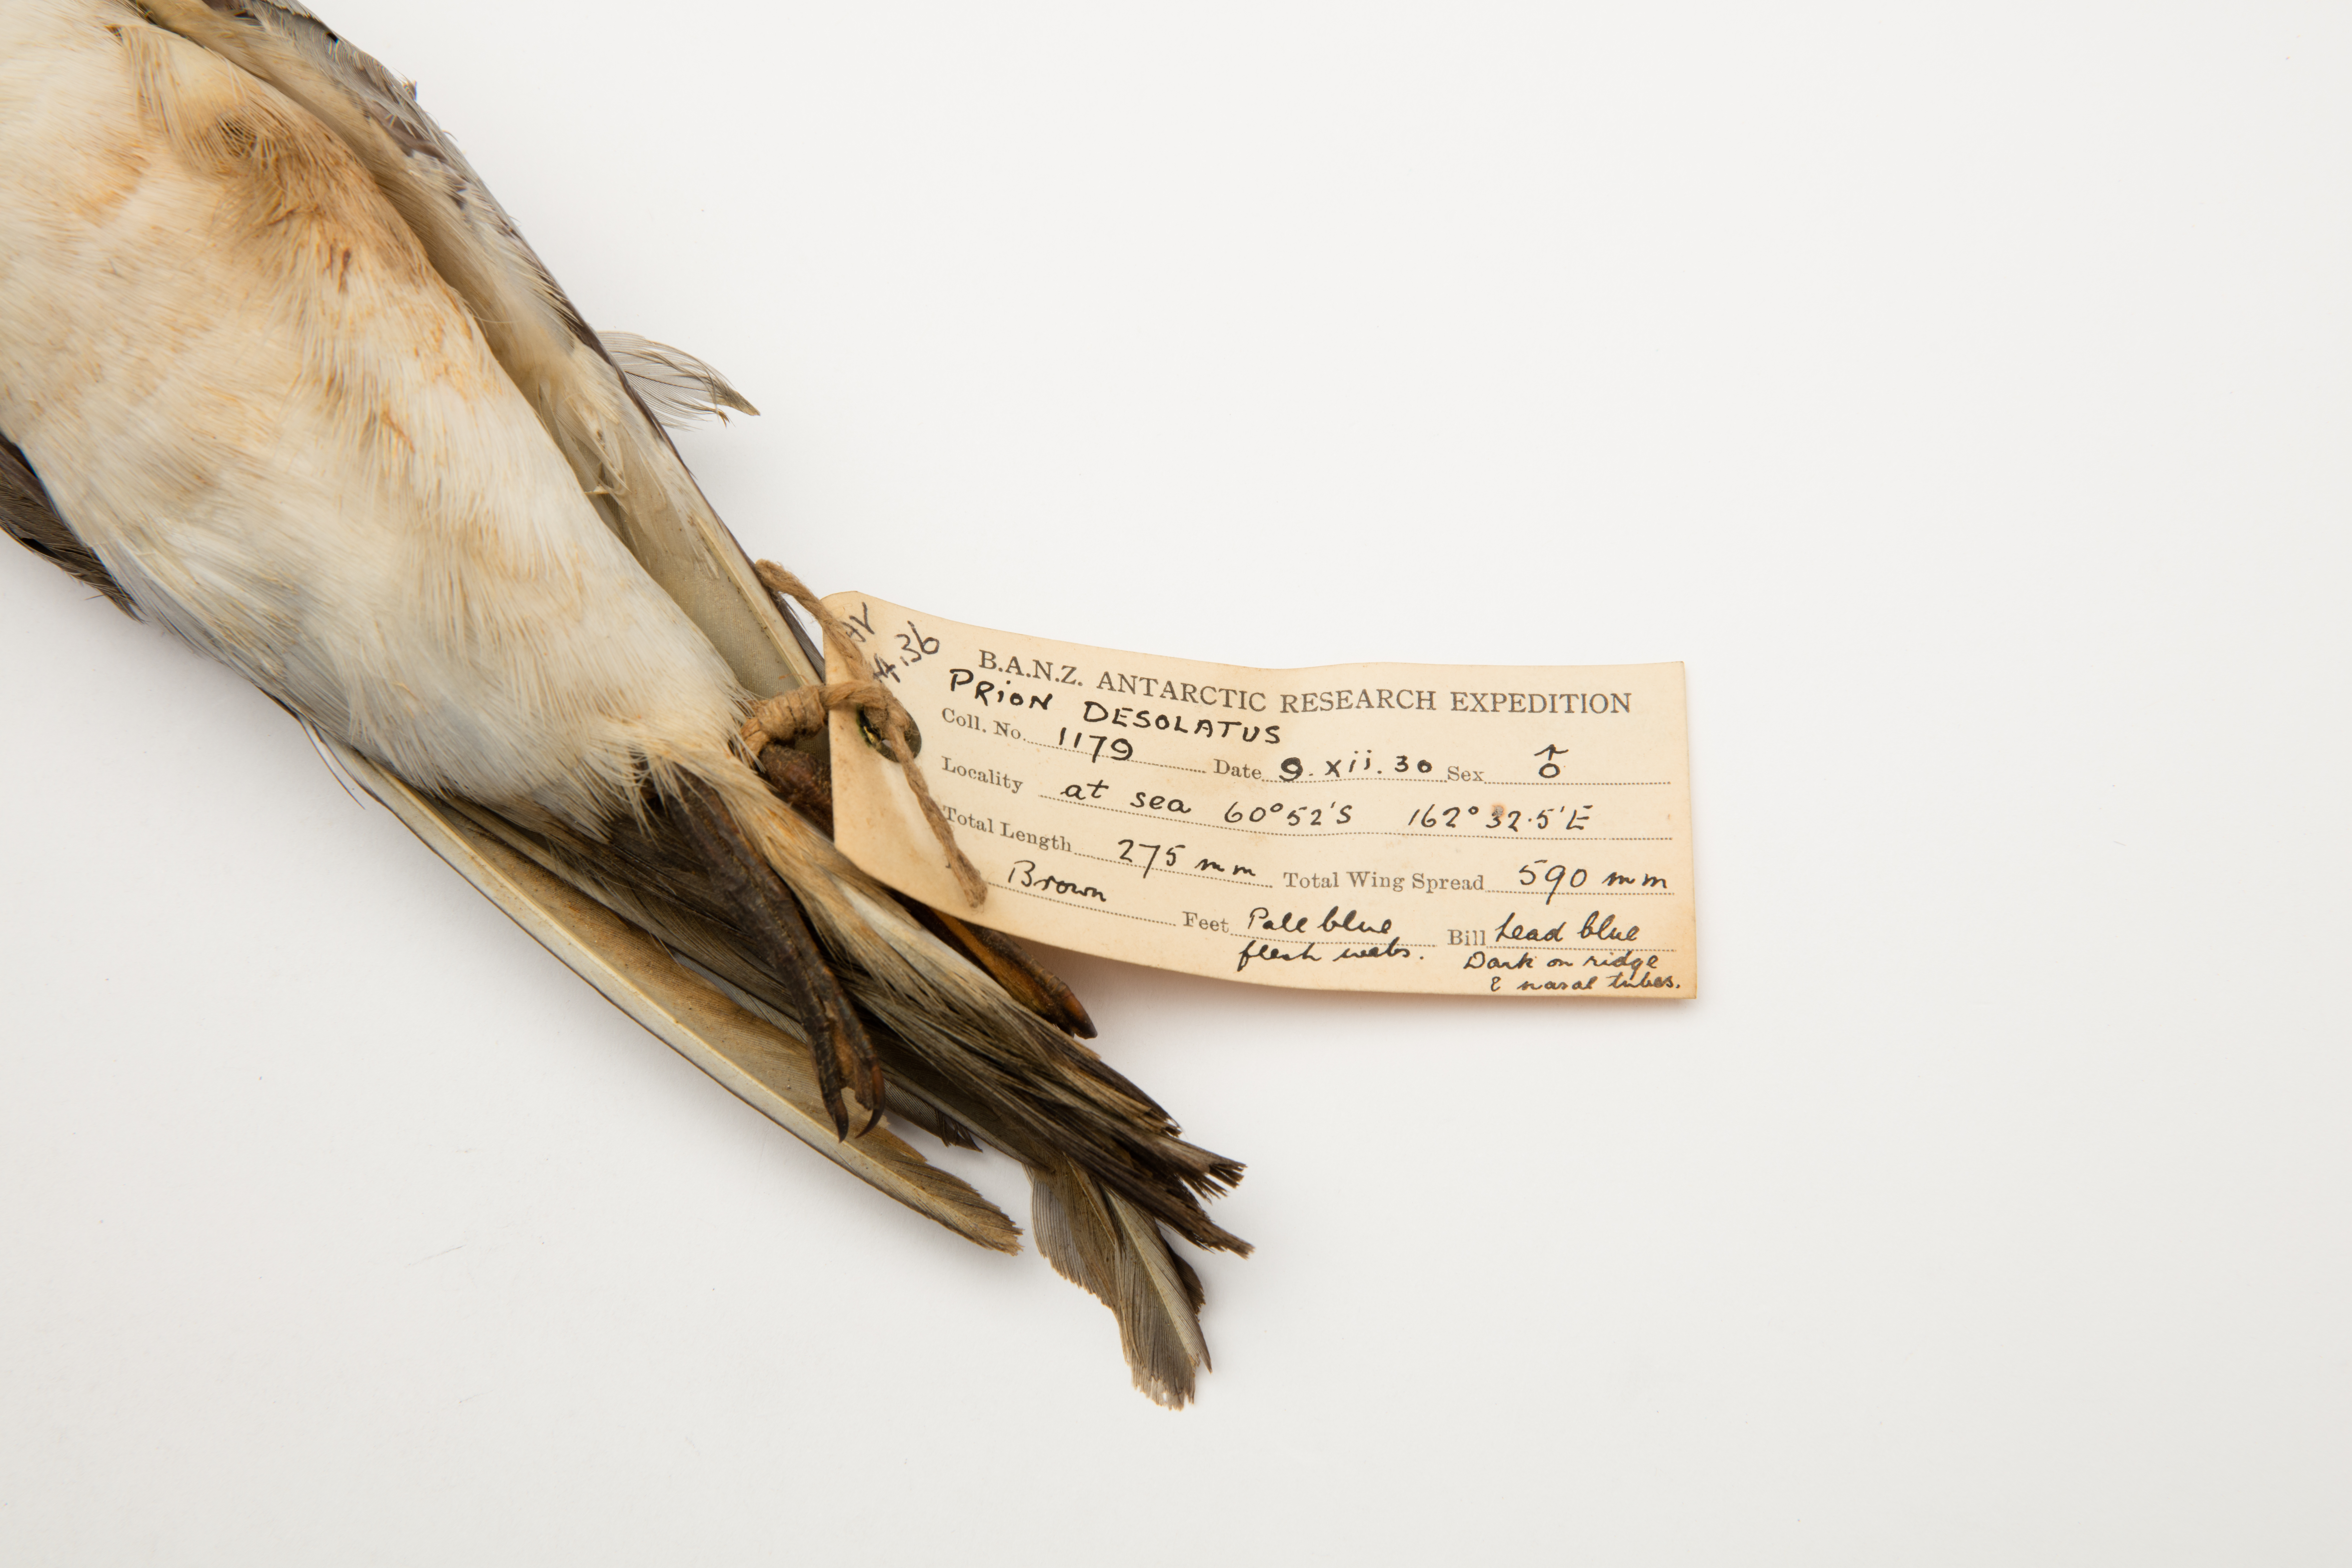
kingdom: Animalia
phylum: Chordata
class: Aves
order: Procellariiformes
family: Procellariidae
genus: Pachyptila
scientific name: Pachyptila desolata
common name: Antarctic prion
